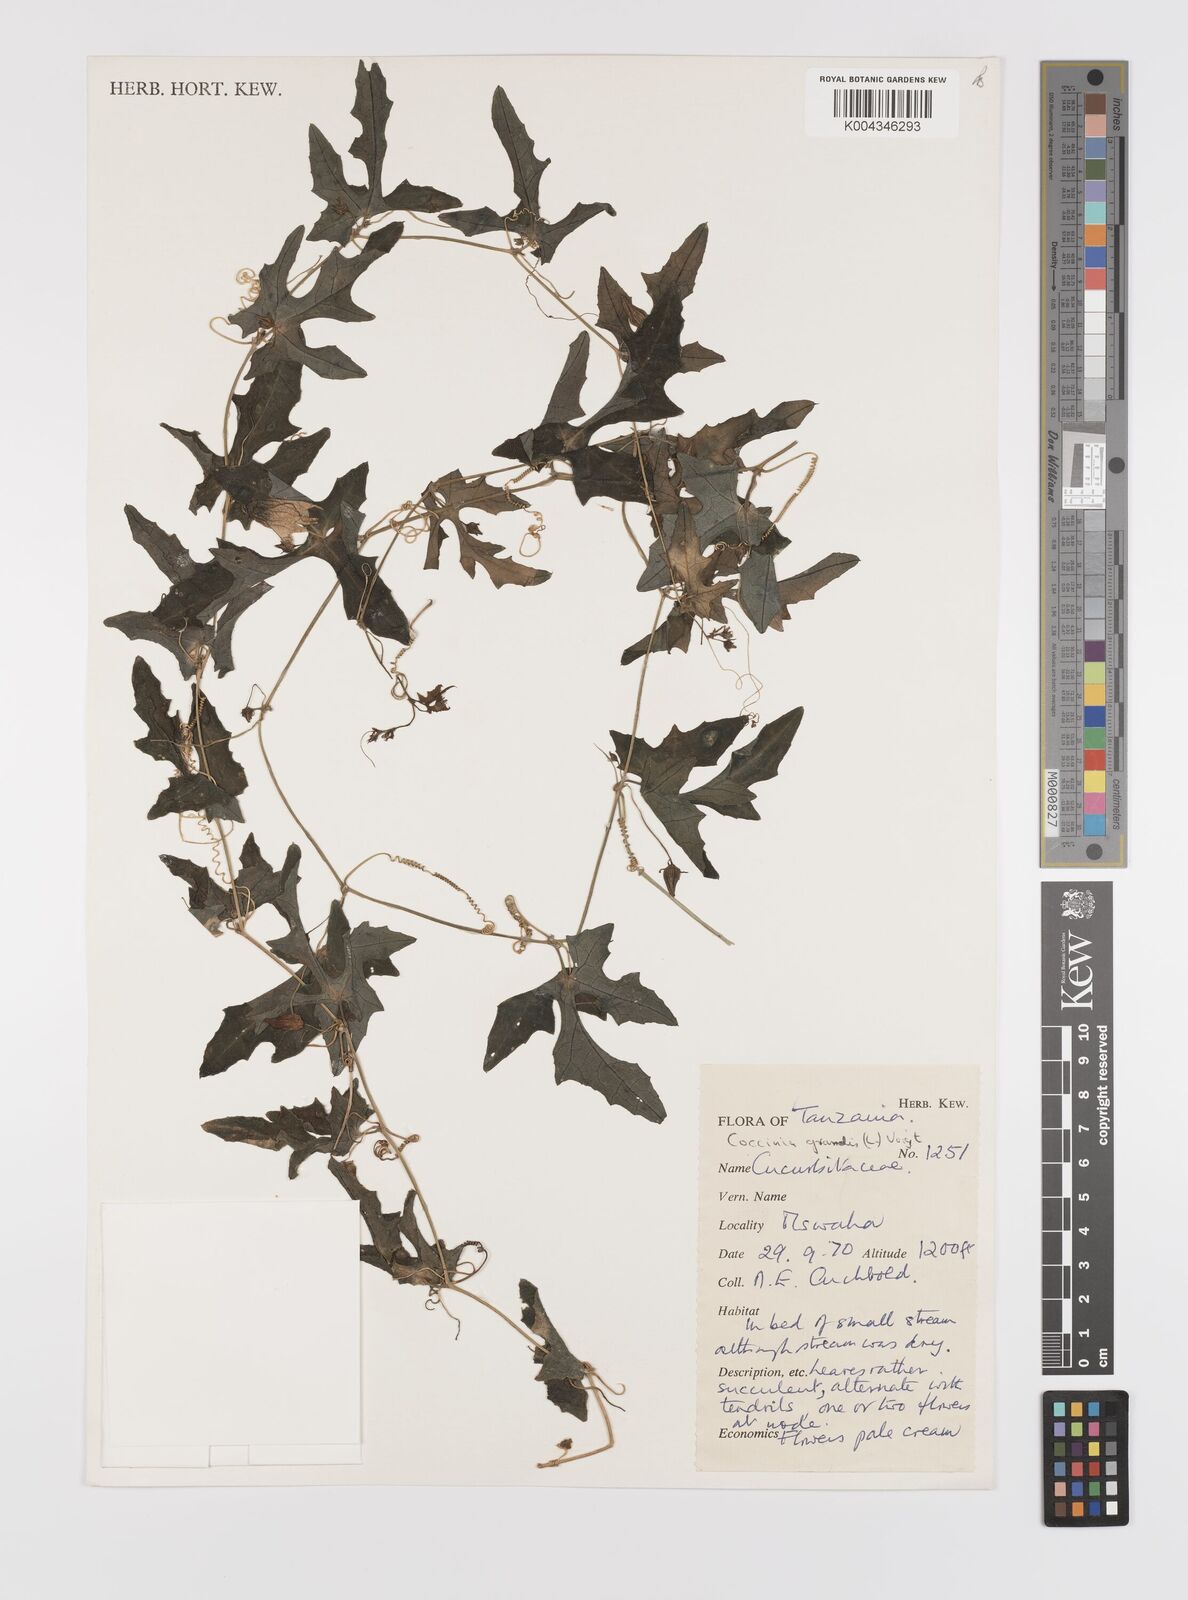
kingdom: Plantae
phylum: Tracheophyta
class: Magnoliopsida
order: Cucurbitales
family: Cucurbitaceae
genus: Coccinia
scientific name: Coccinia grandis
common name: Ivy gourd
